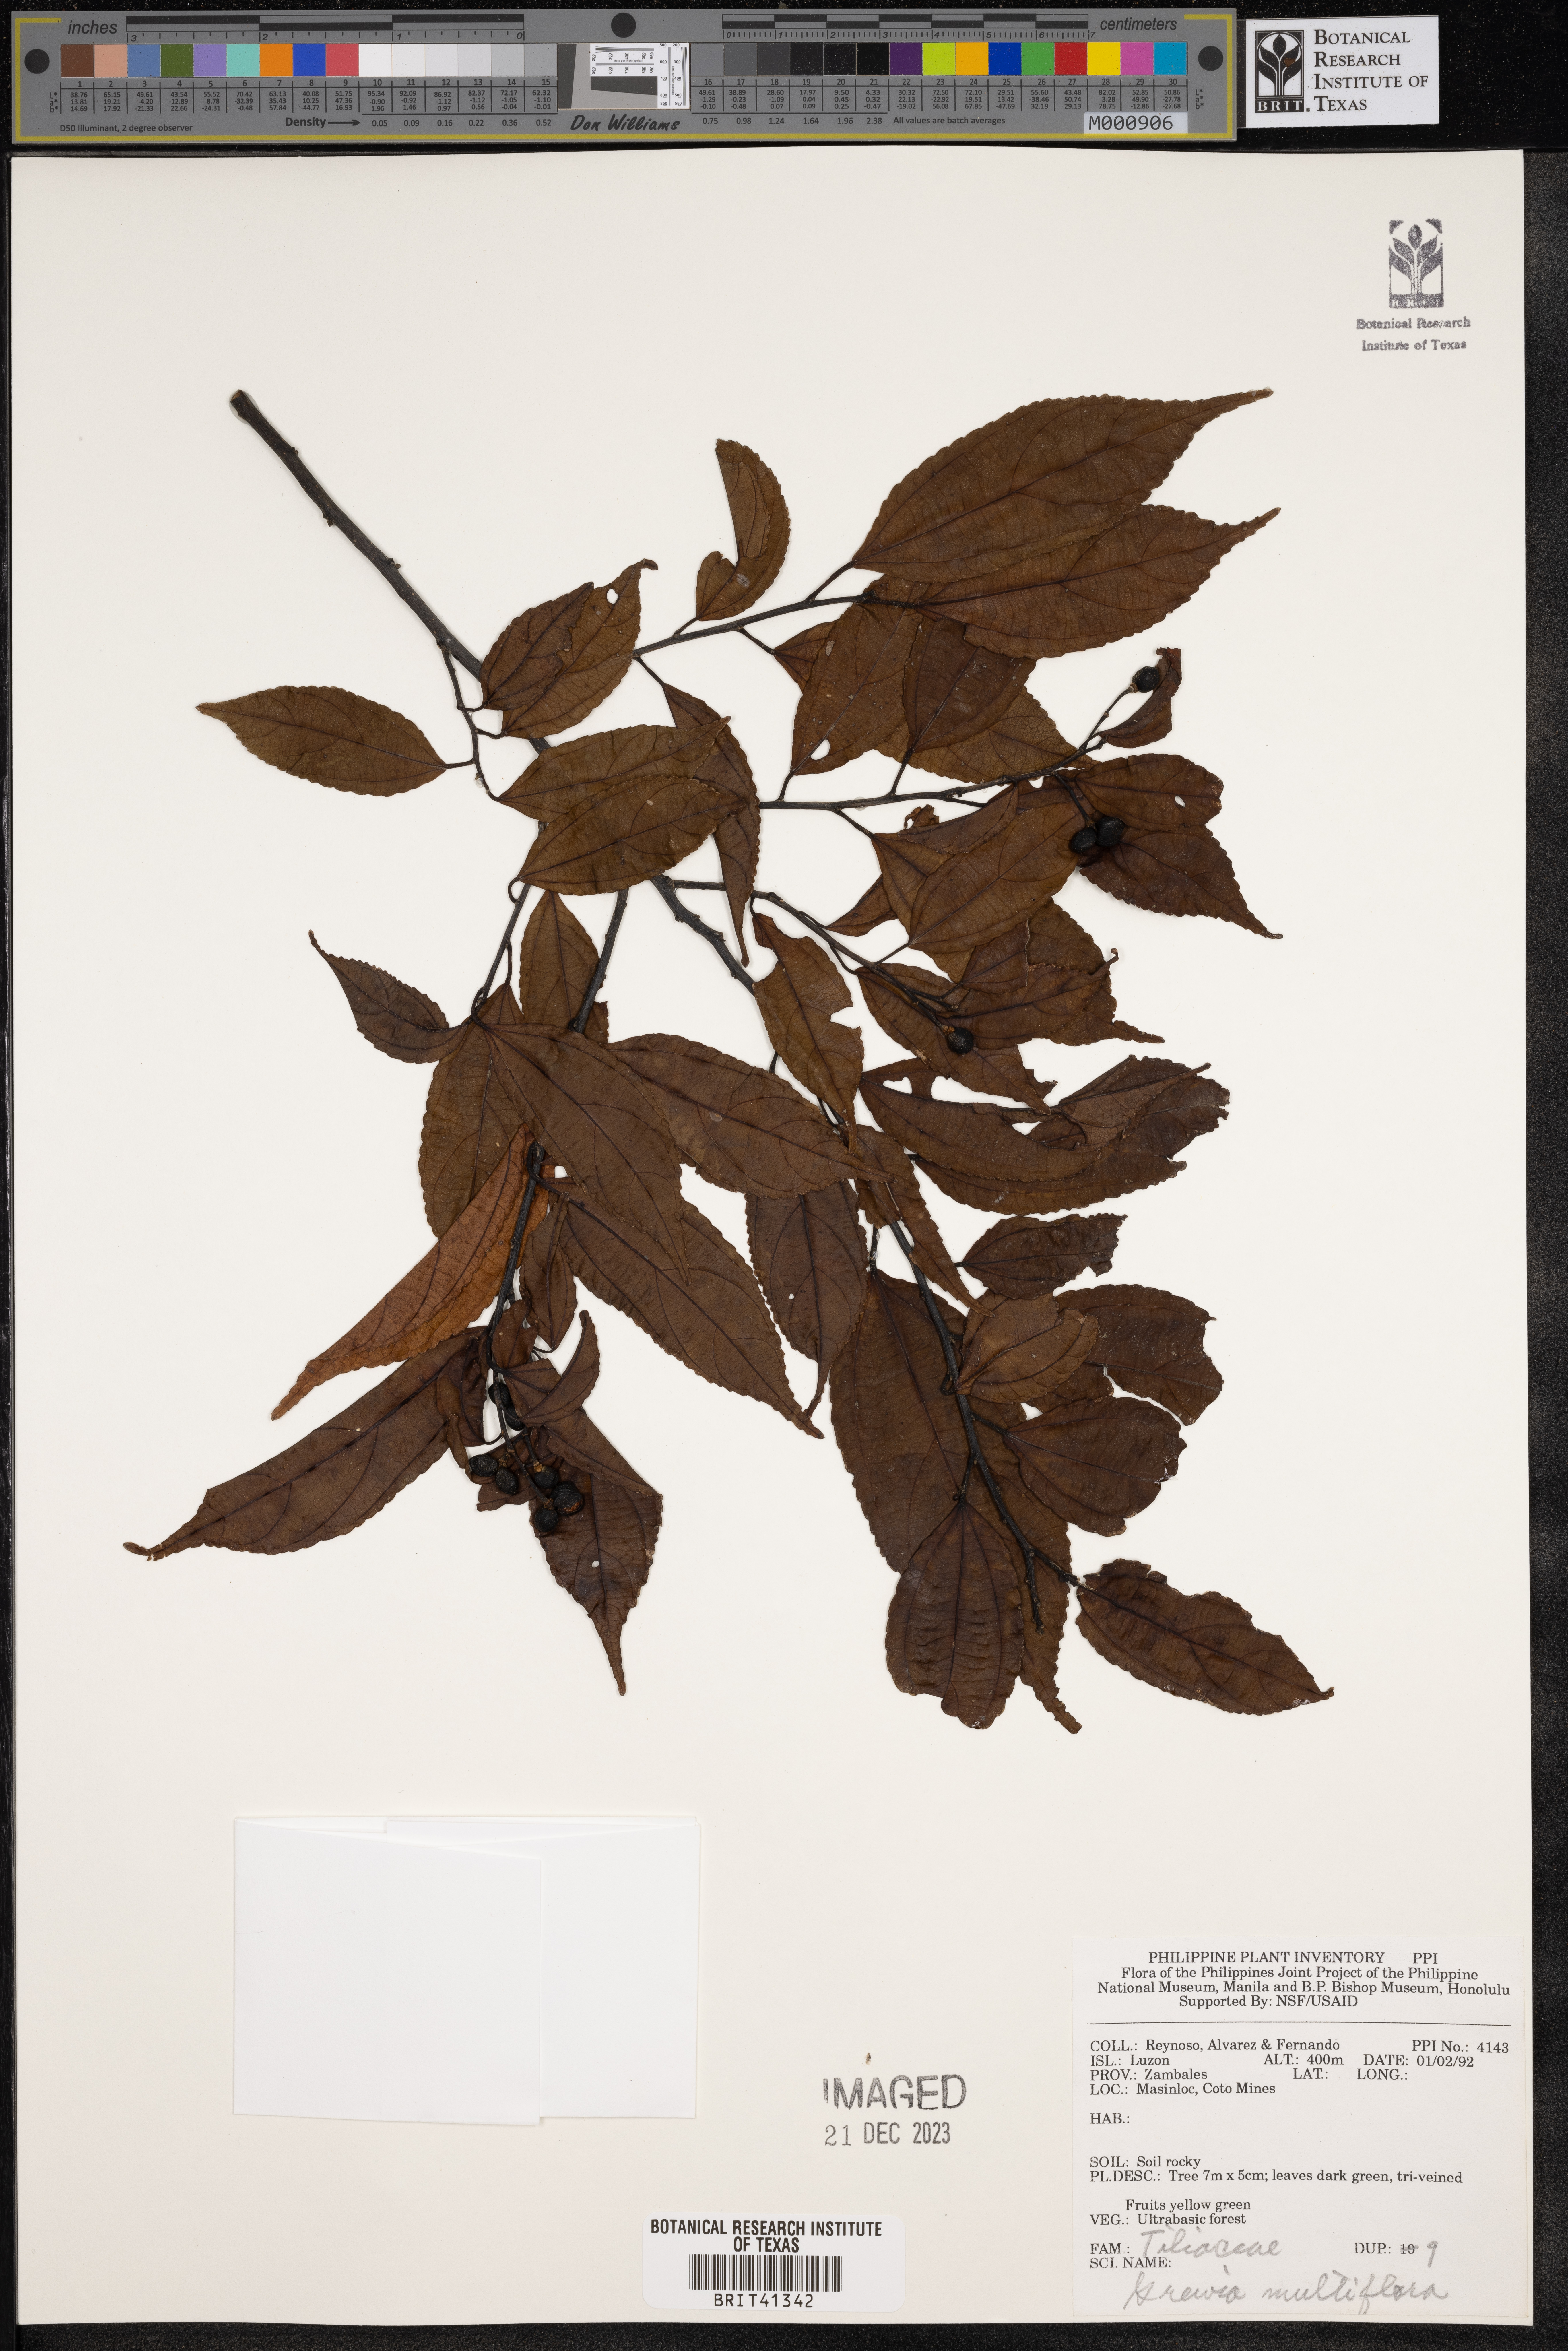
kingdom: Plantae
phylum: Tracheophyta
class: Magnoliopsida
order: Malvales
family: Malvaceae
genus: Grewia
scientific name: Grewia multiflora
